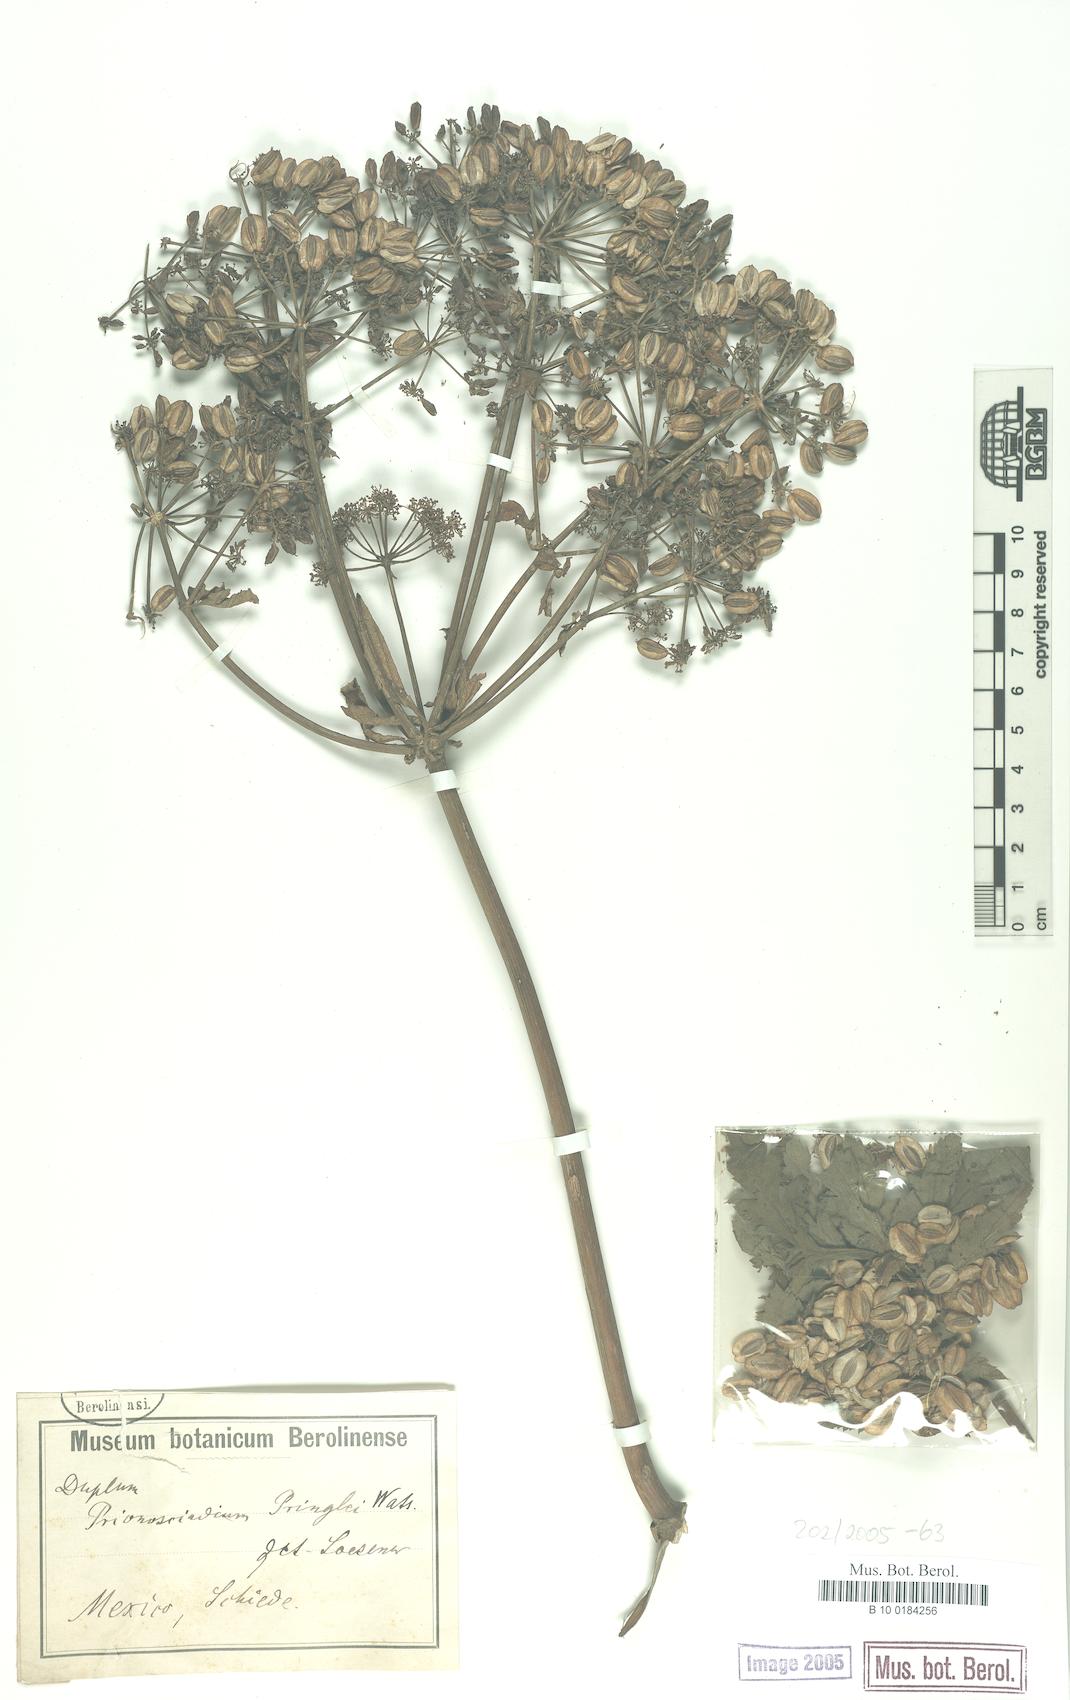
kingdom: Plantae
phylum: Tracheophyta
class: Magnoliopsida
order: Apiales
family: Apiaceae
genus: Prionosciadium
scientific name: Prionosciadium thapsoides
